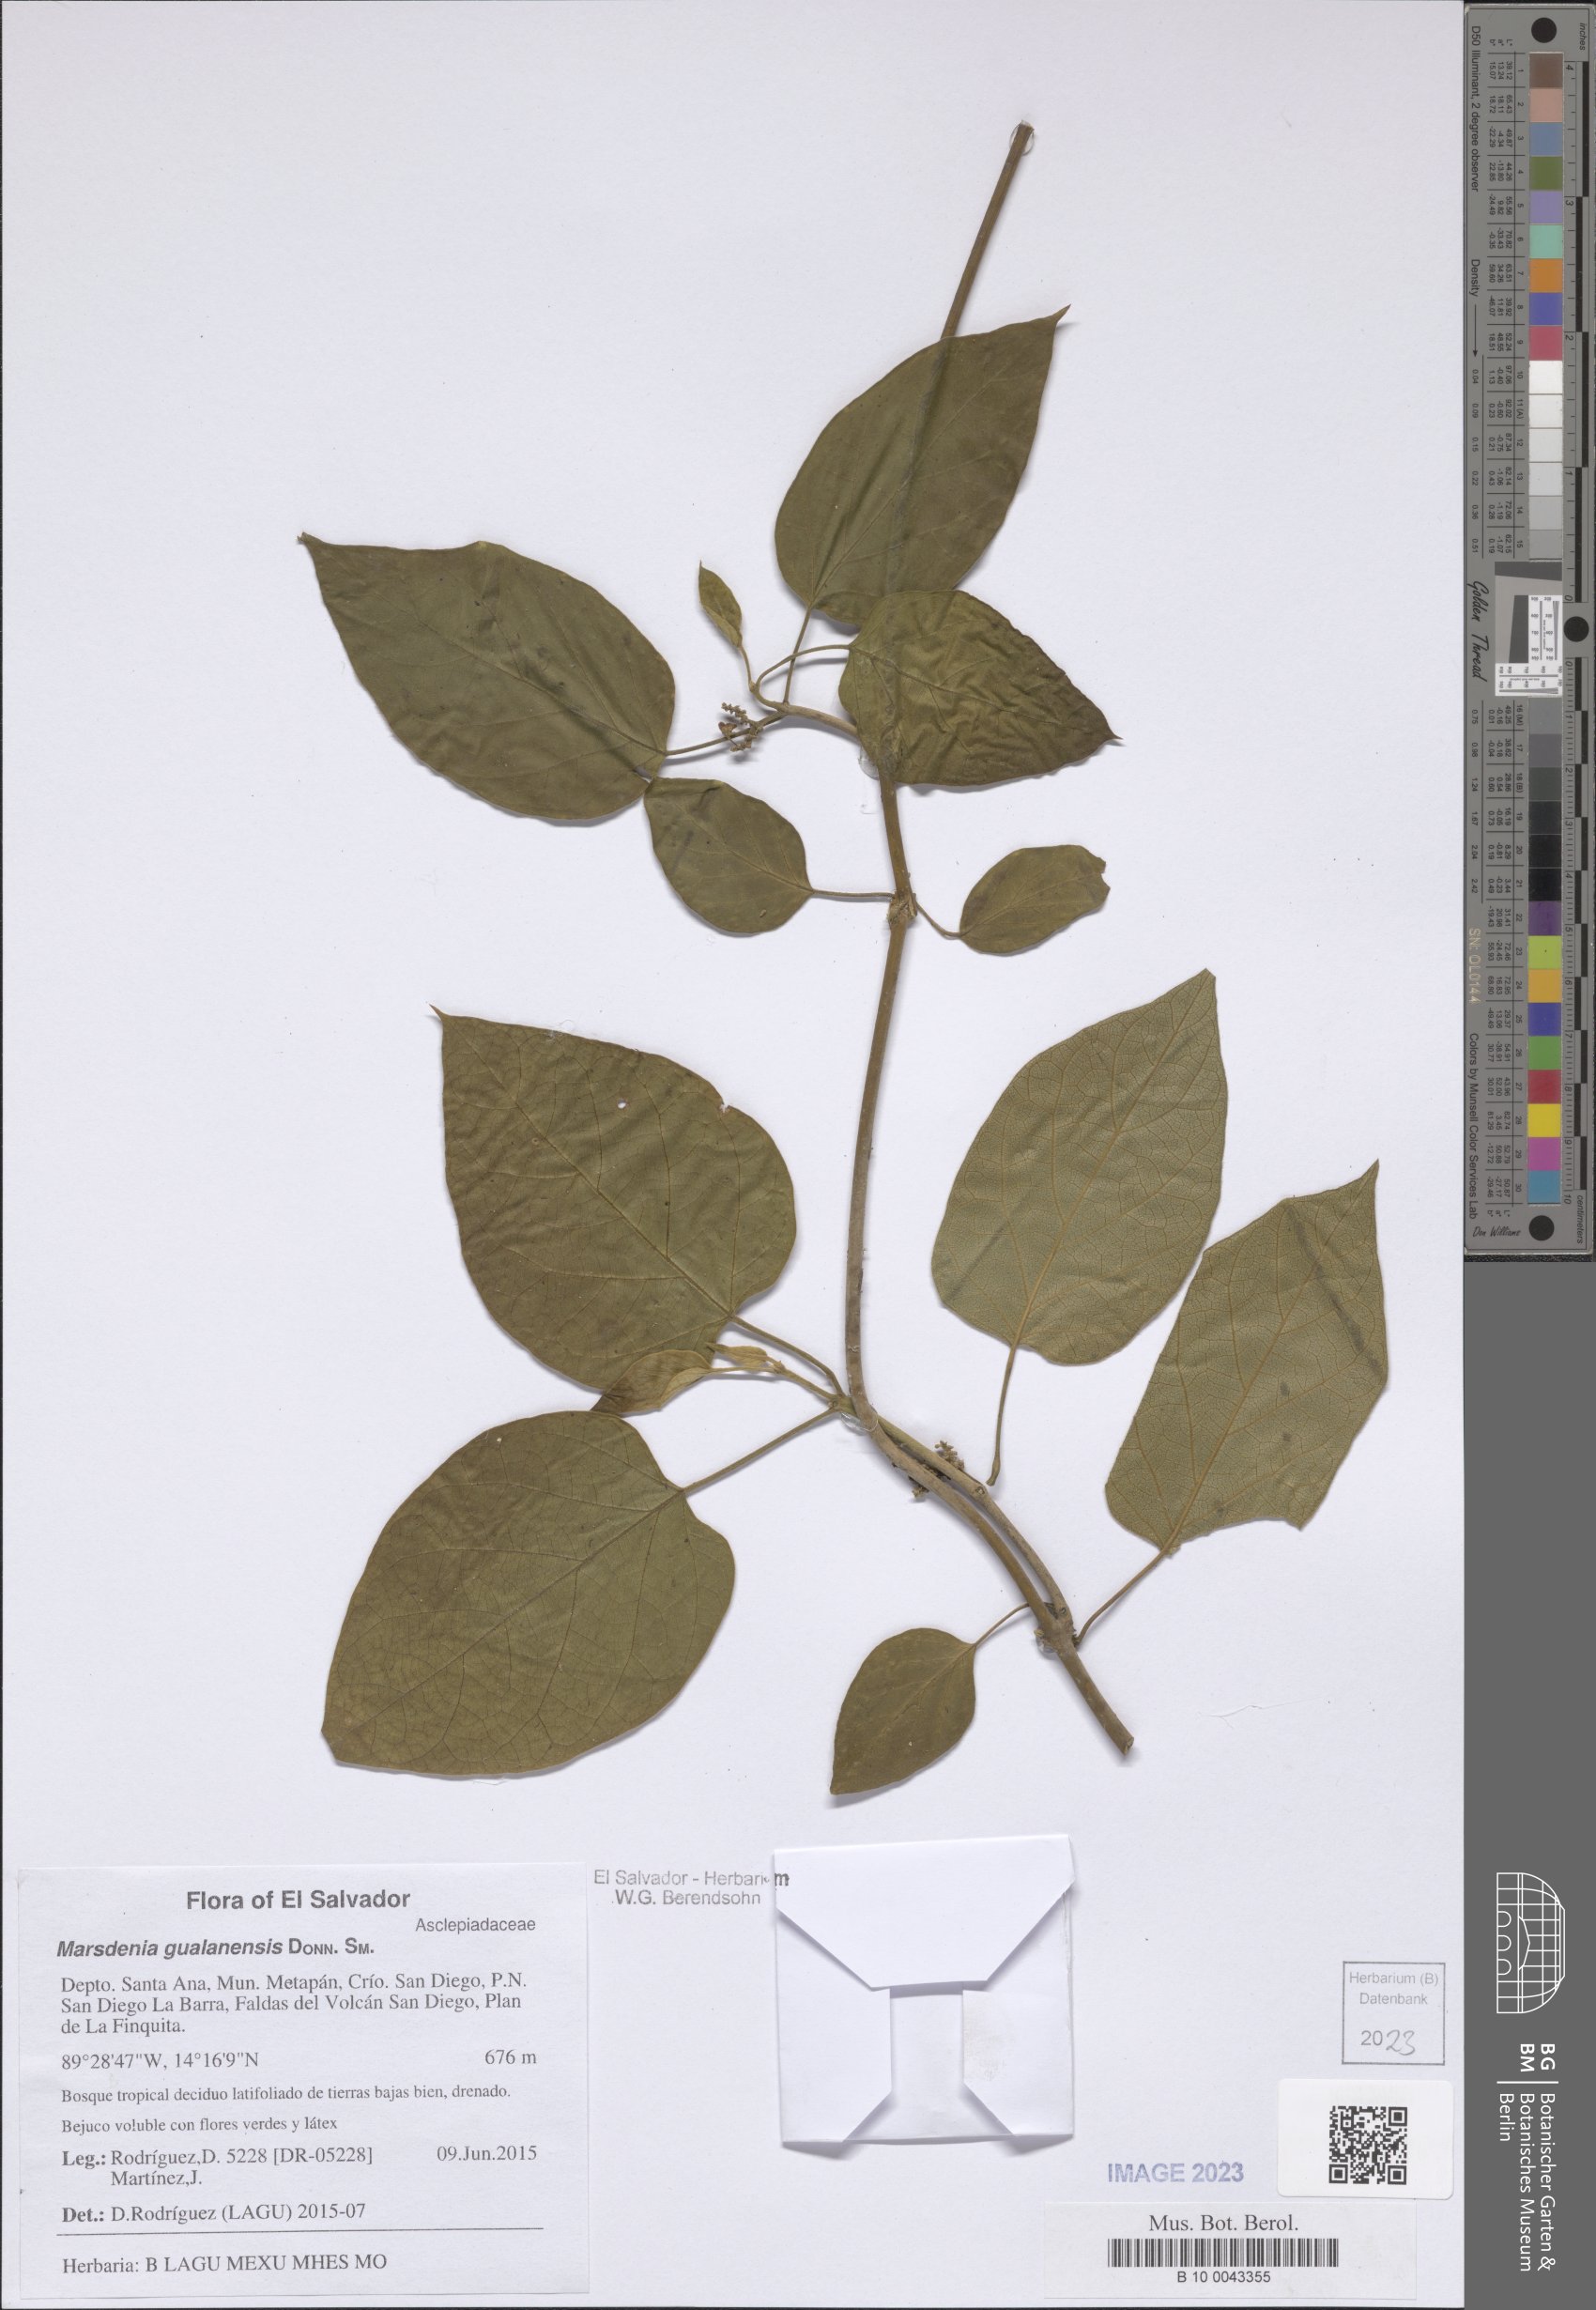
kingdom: Plantae
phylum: Tracheophyta
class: Magnoliopsida
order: Gentianales
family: Apocynaceae
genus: Ruehssia
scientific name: Ruehssia gualanensis
